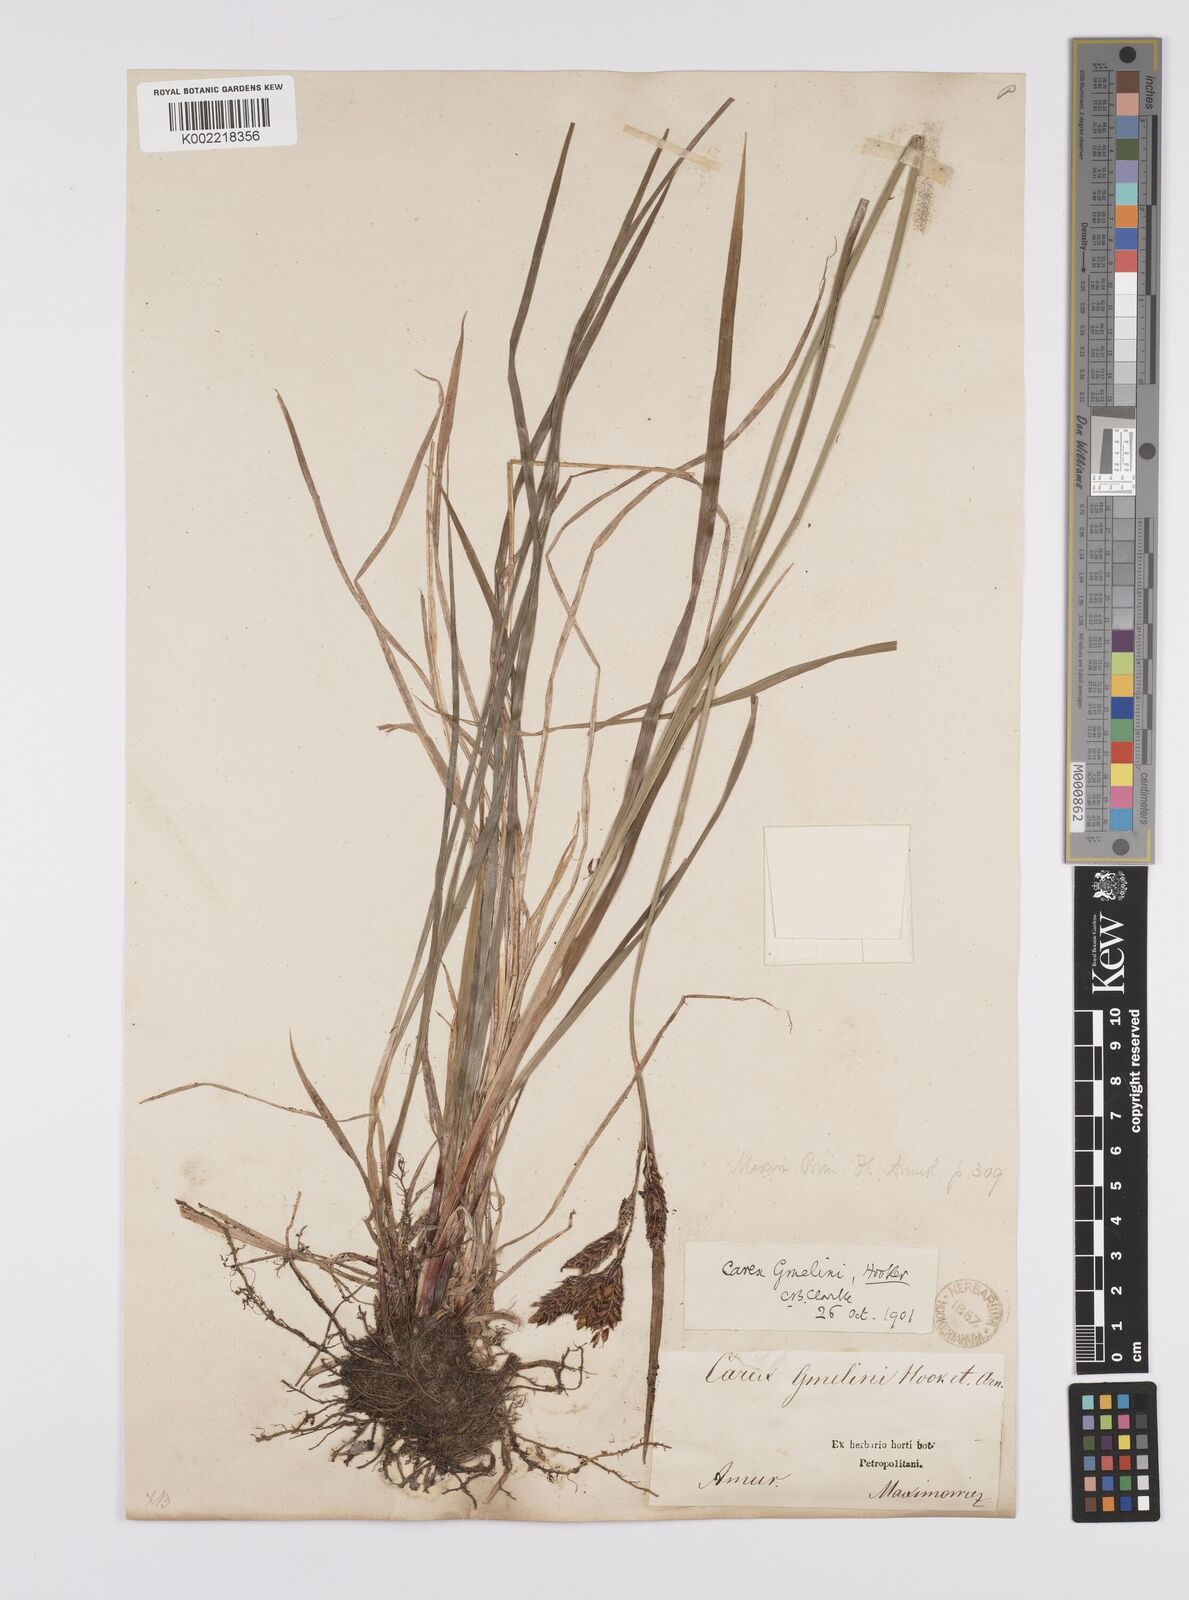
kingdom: Plantae
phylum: Tracheophyta
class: Liliopsida
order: Poales
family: Cyperaceae
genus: Carex
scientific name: Carex gmelinii
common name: Gmelin's sedge
